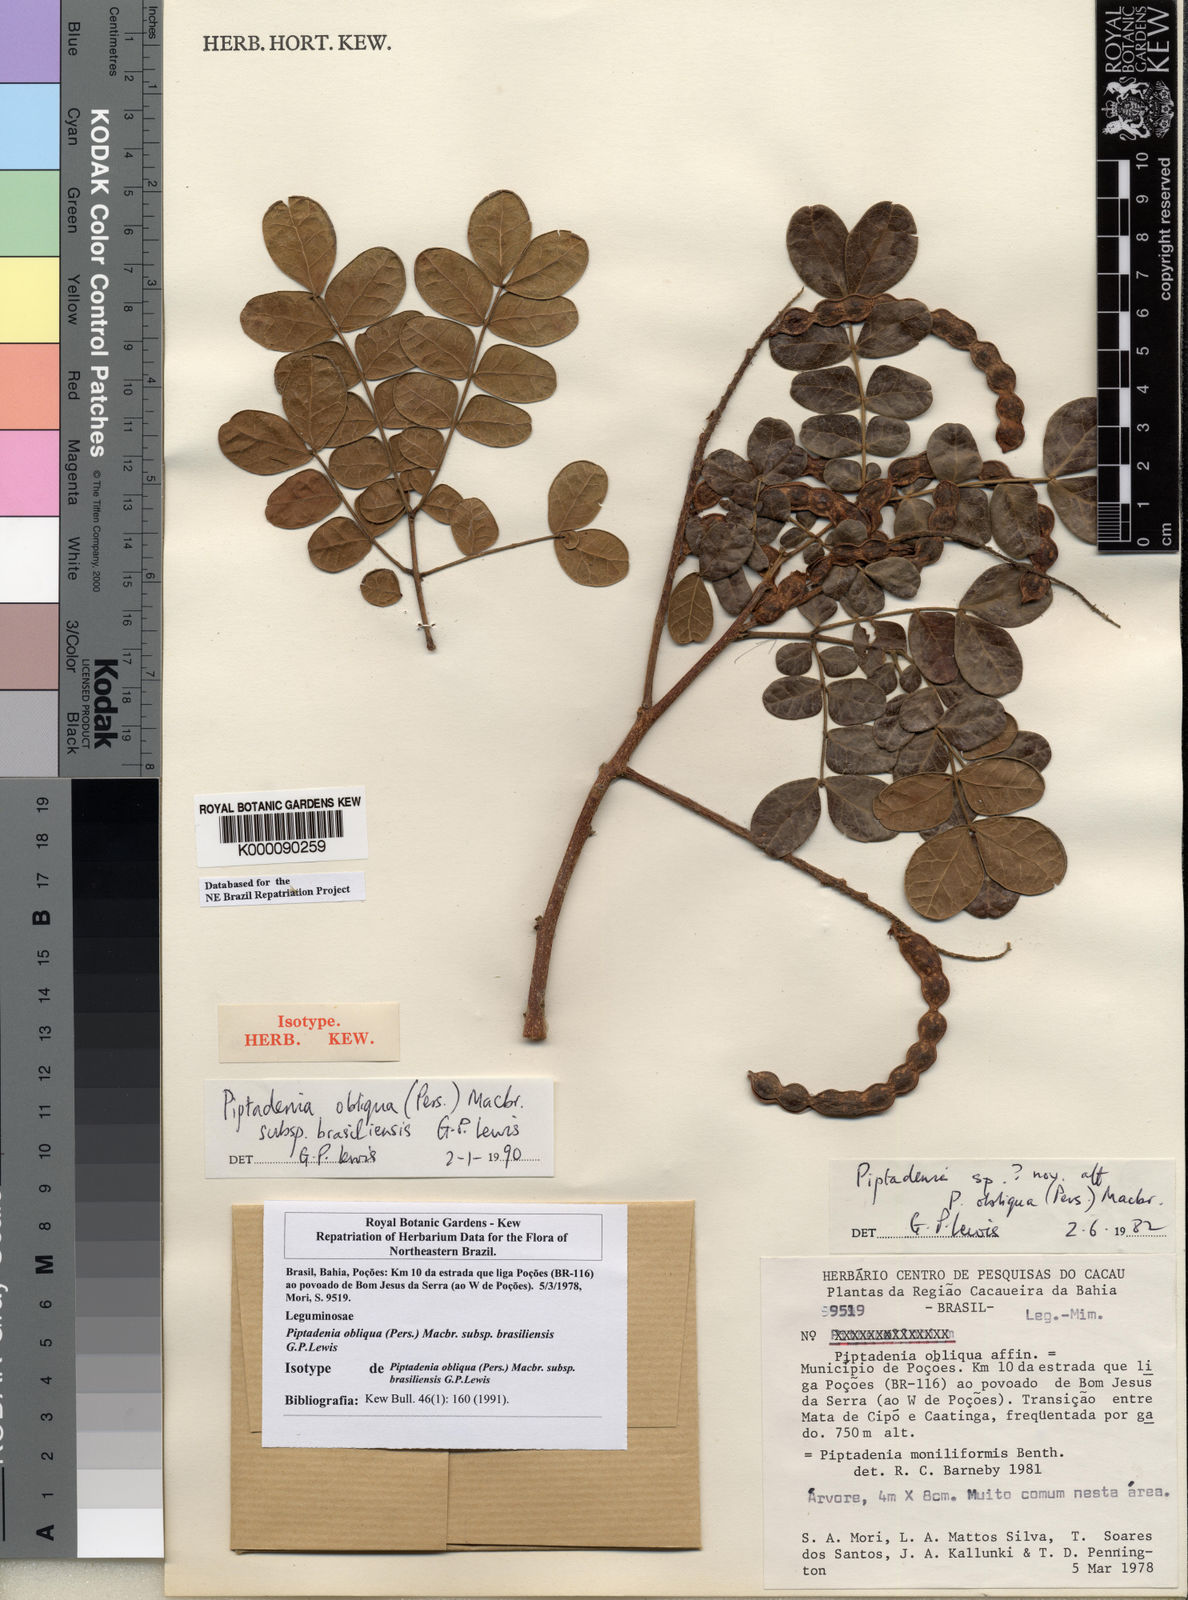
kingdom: Plantae
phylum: Tracheophyta
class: Magnoliopsida
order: Fabales
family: Fabaceae
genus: Pityrocarpa
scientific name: Pityrocarpa obliqua
